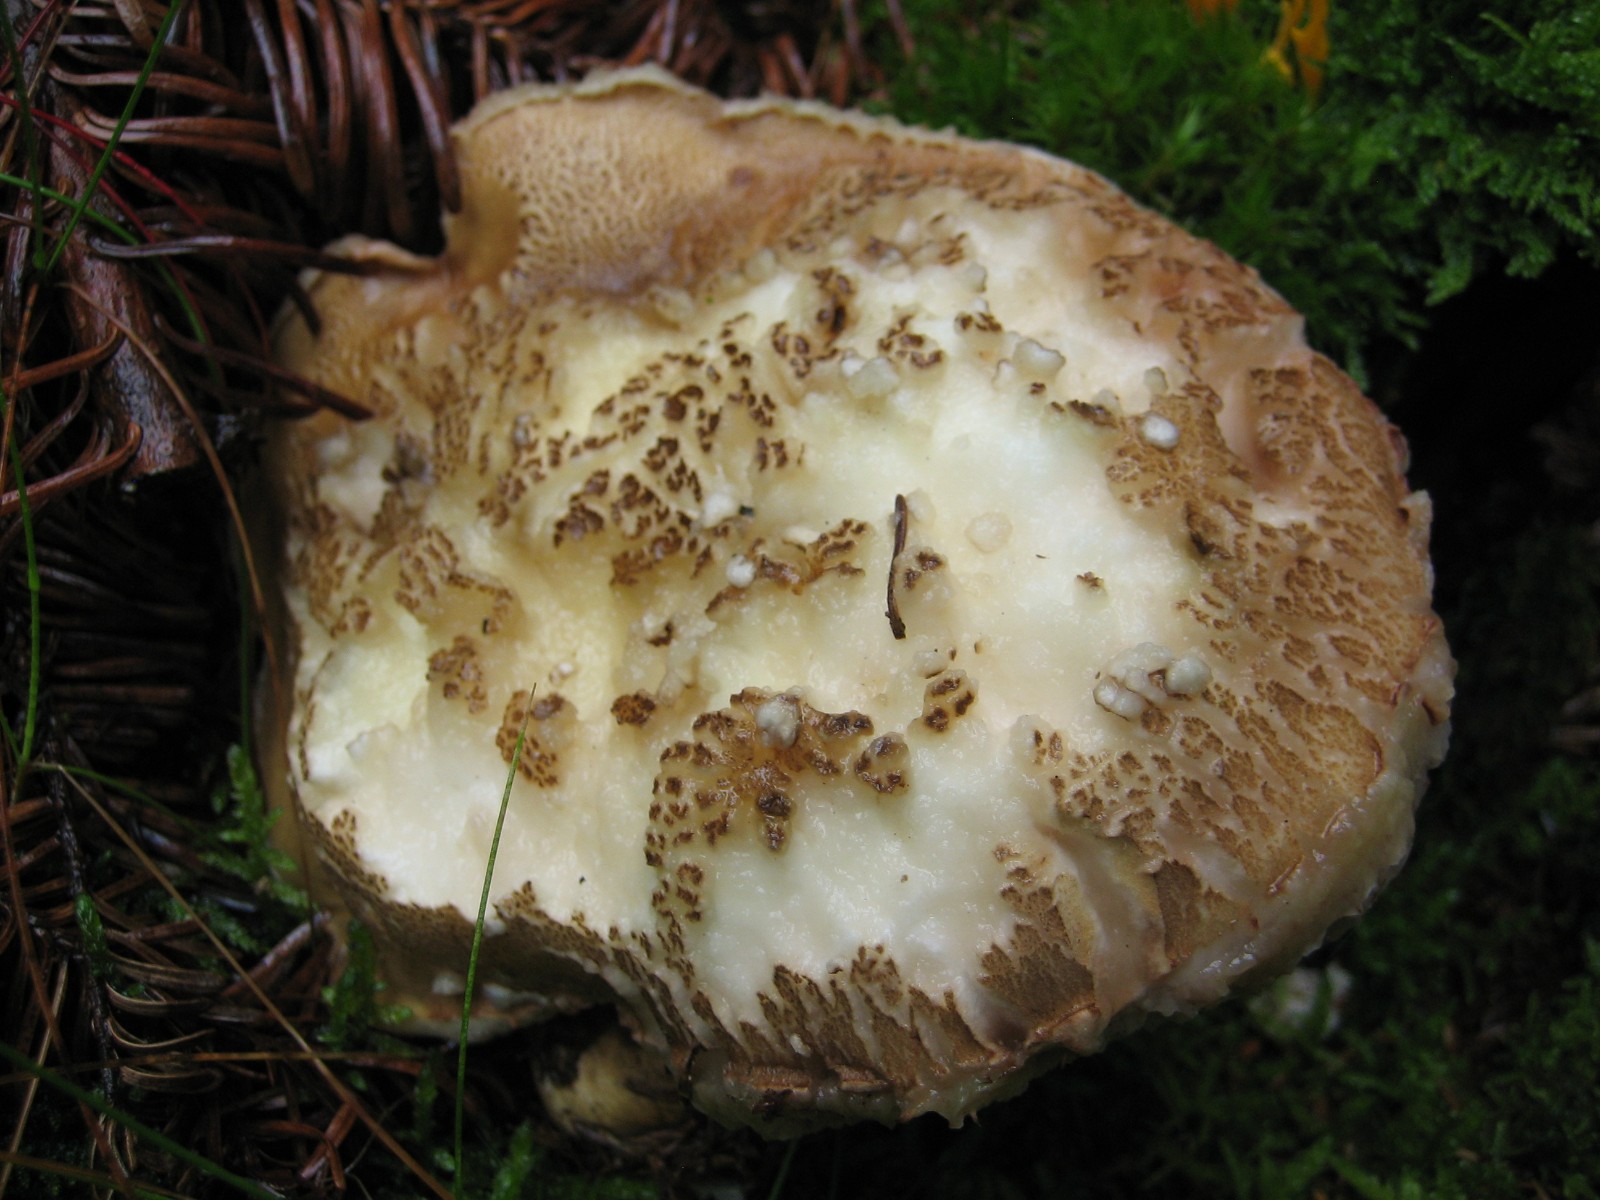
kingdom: Fungi
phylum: Basidiomycota
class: Agaricomycetes
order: Boletales
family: Boletaceae
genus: Tylopilus
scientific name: Tylopilus felleus
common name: galderørhat
